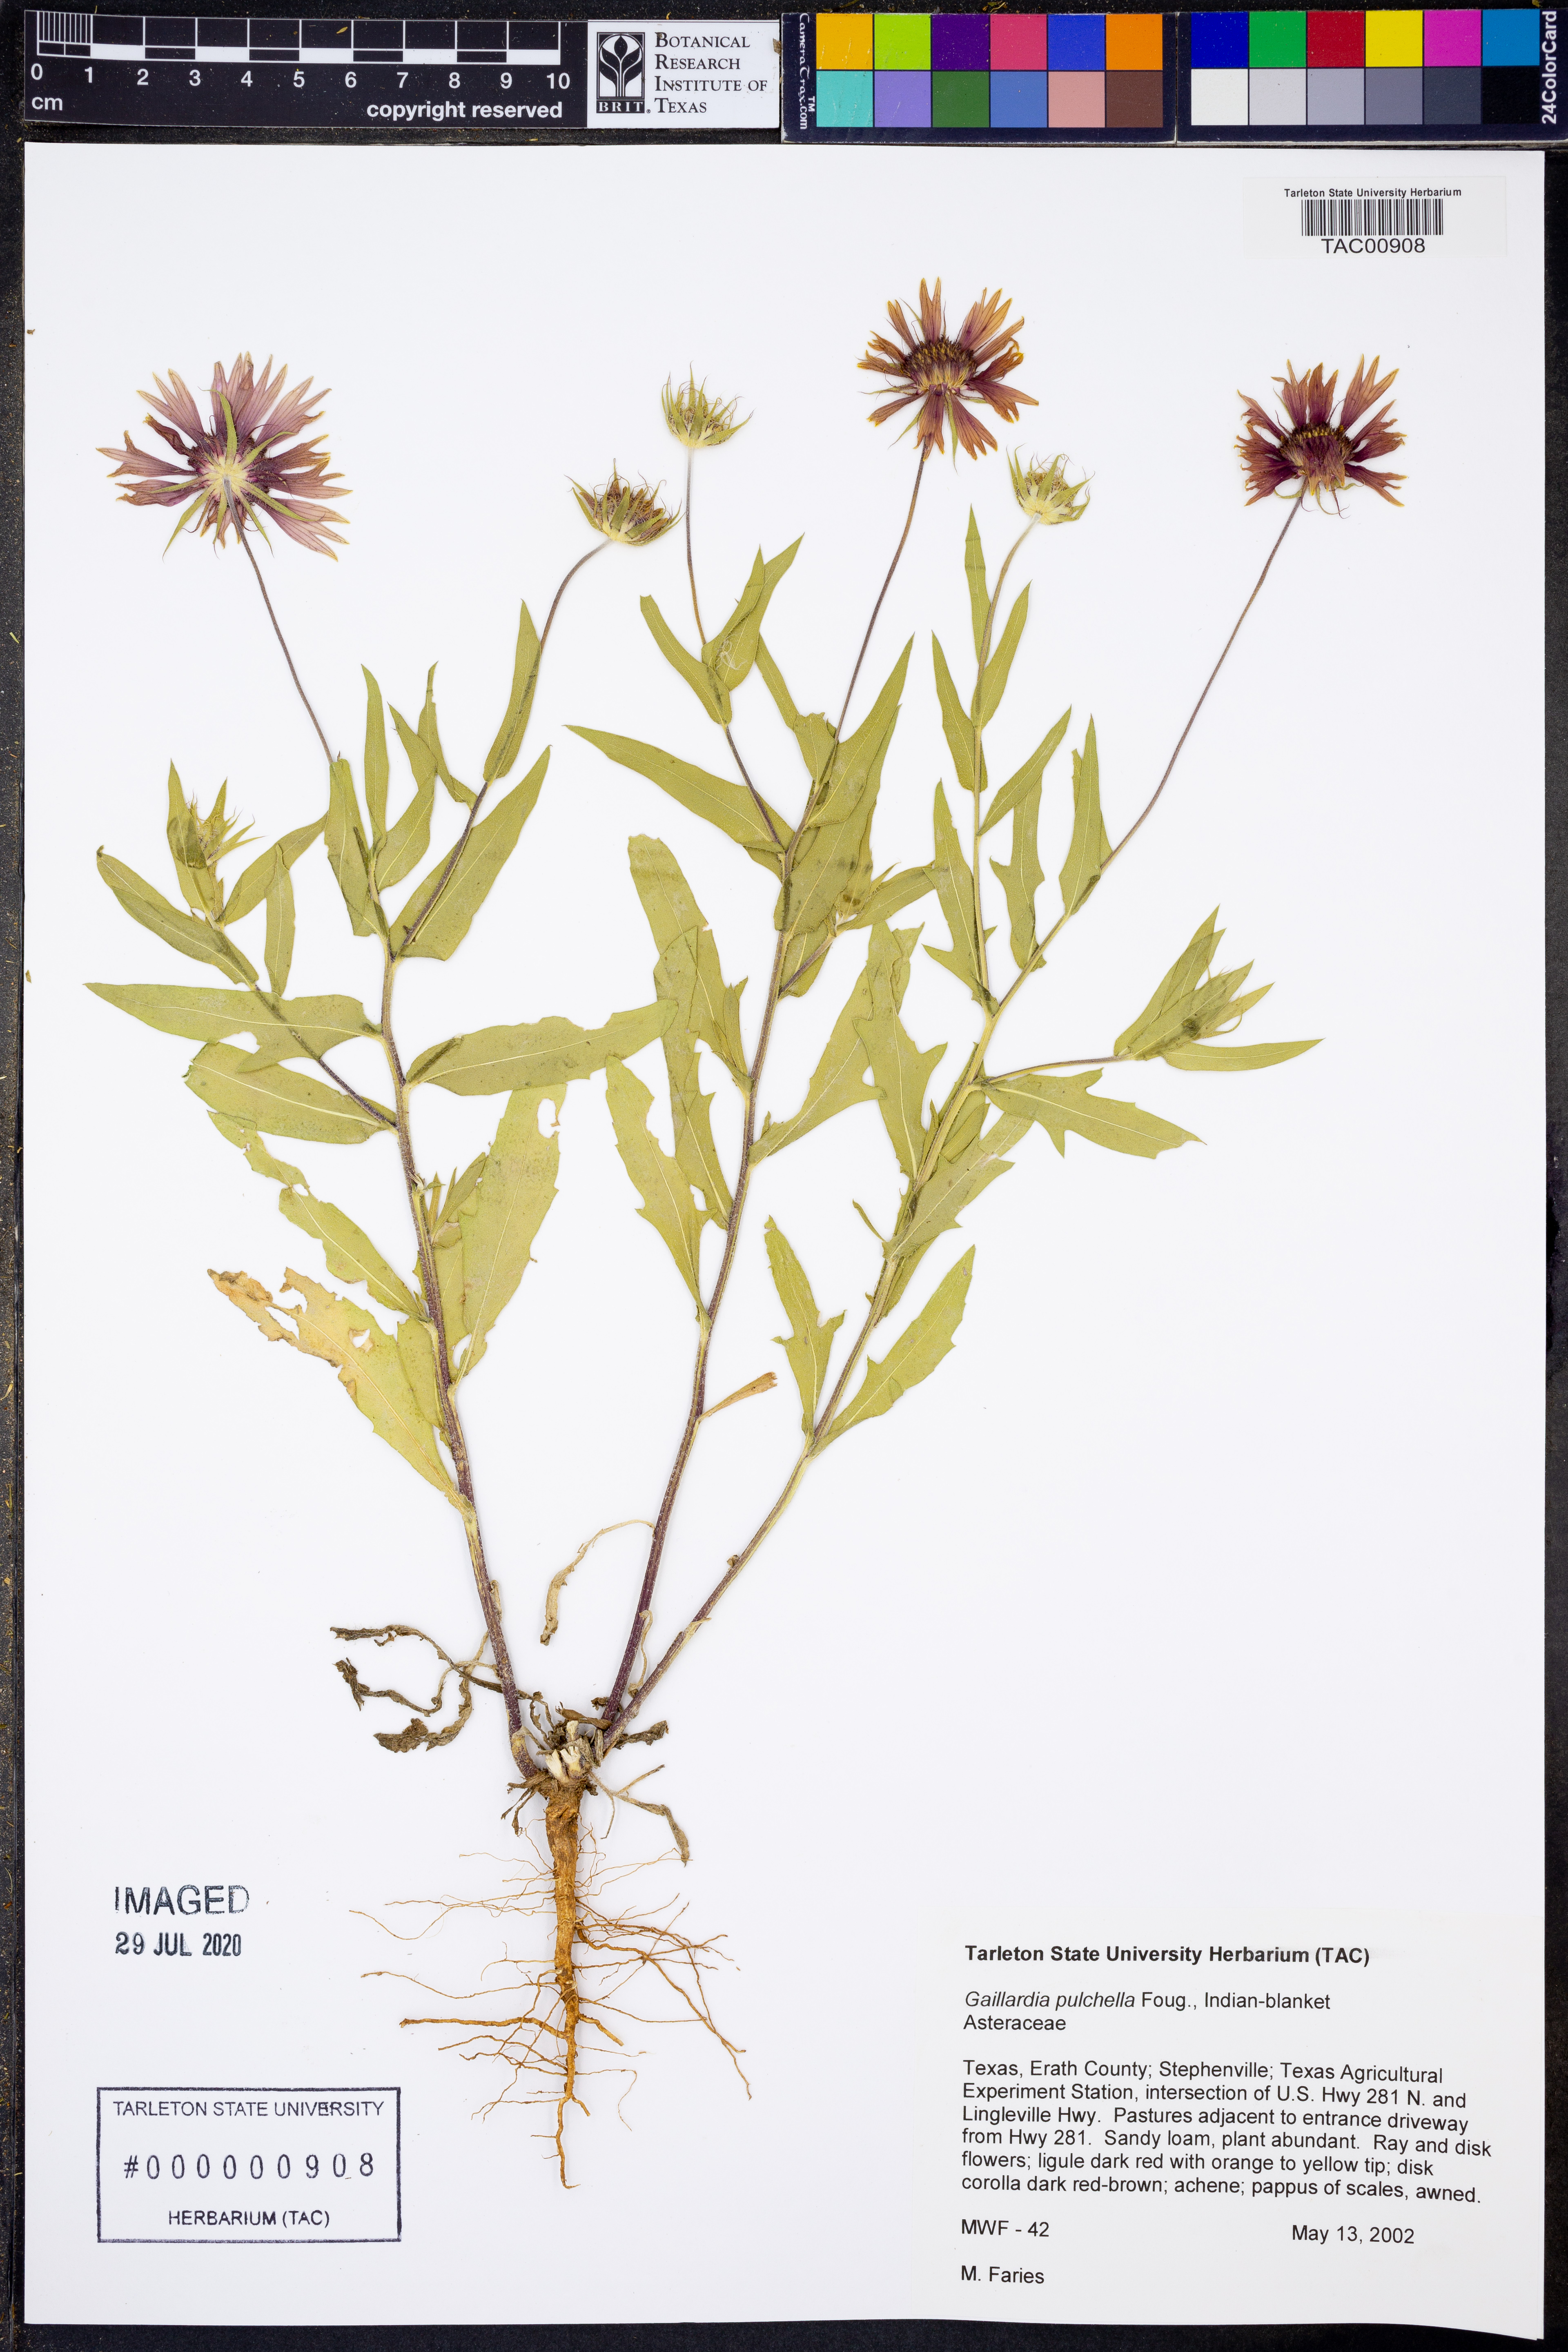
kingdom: Plantae
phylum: Tracheophyta
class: Magnoliopsida
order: Asterales
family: Asteraceae
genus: Gaillardia
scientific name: Gaillardia pulchella
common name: Firewheel
